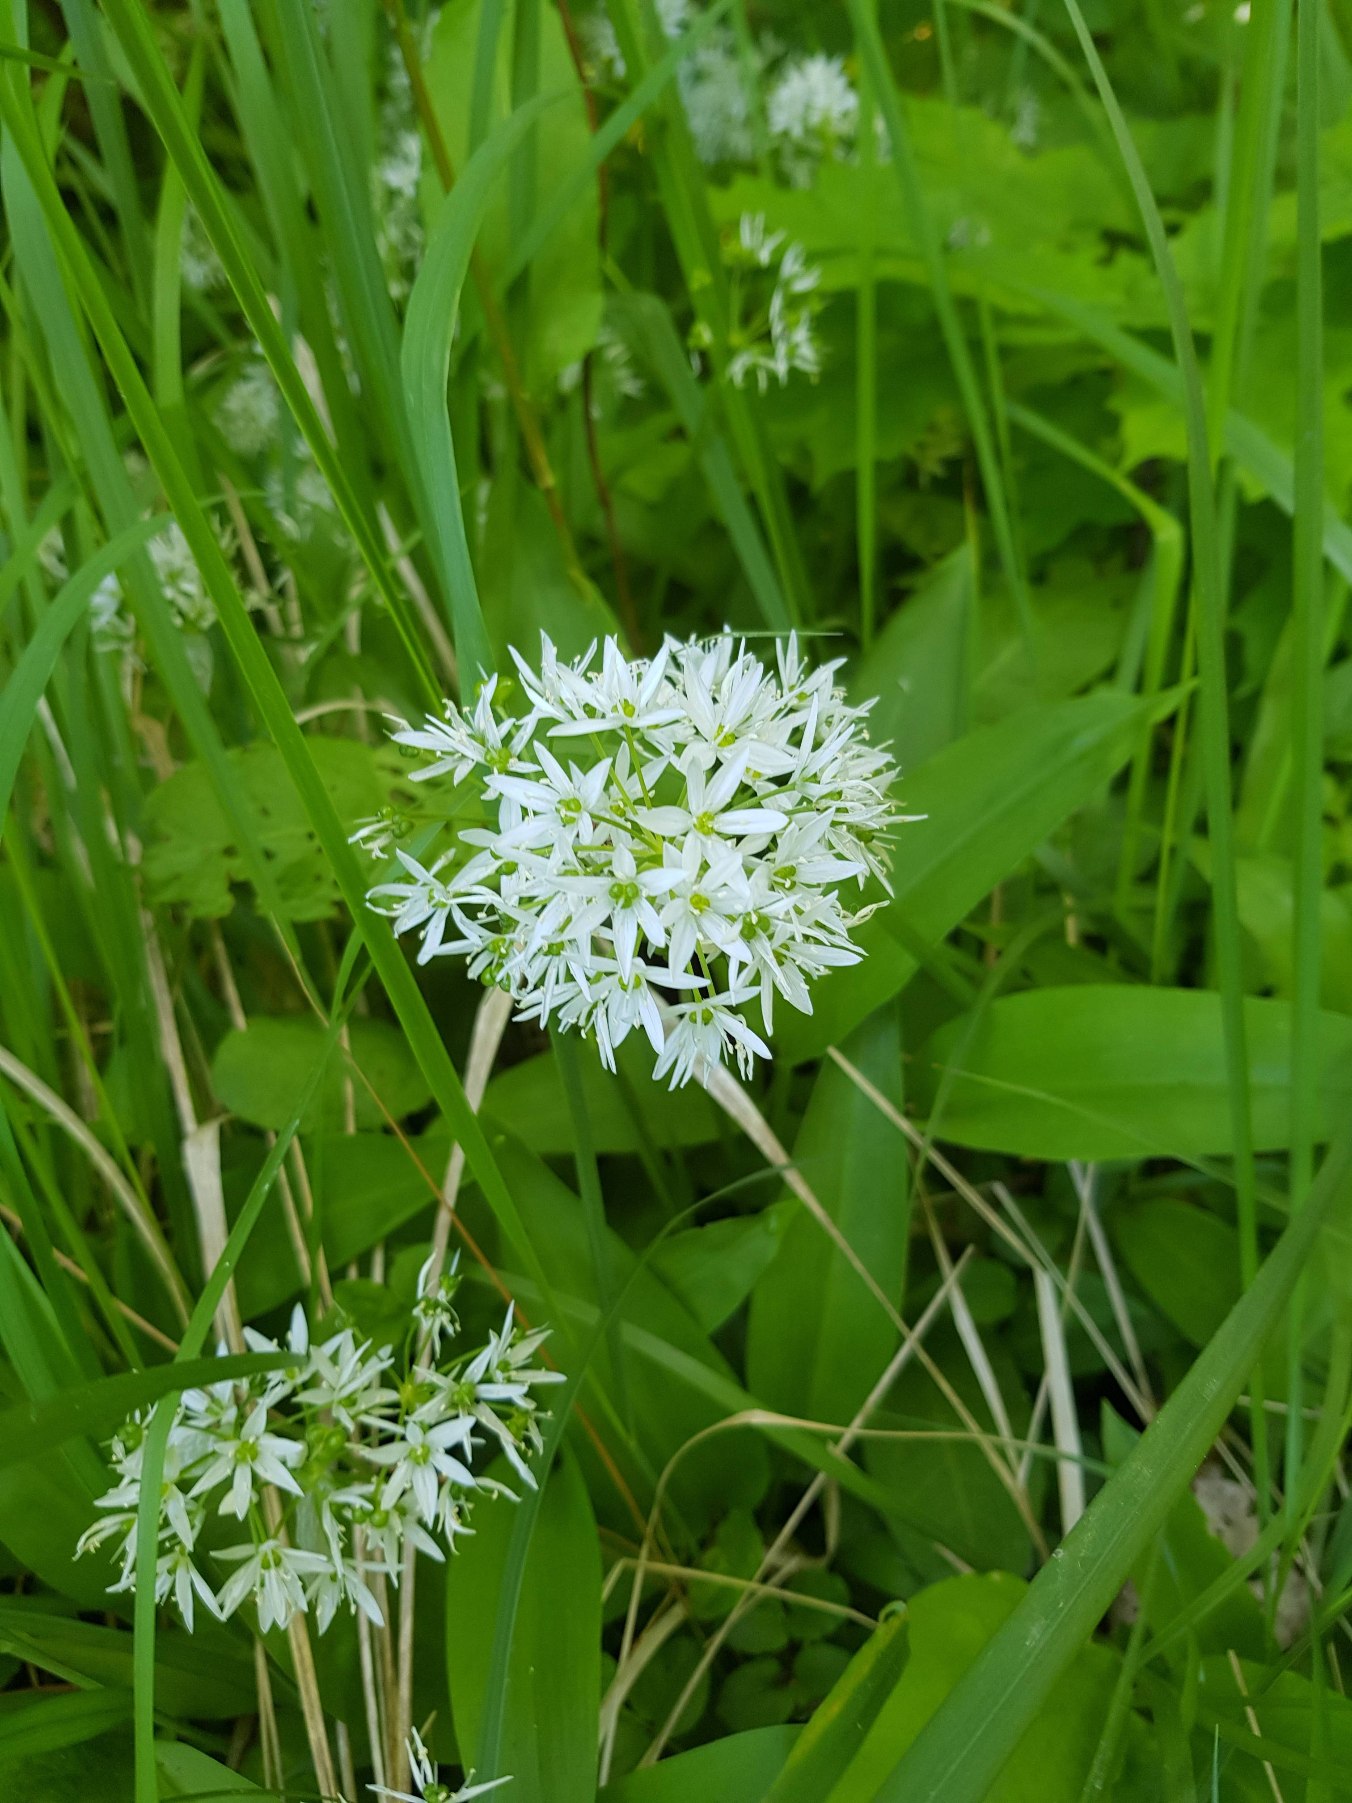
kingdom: Plantae
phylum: Tracheophyta
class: Liliopsida
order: Asparagales
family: Amaryllidaceae
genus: Allium
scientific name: Allium ursinum
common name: Rams-løg
